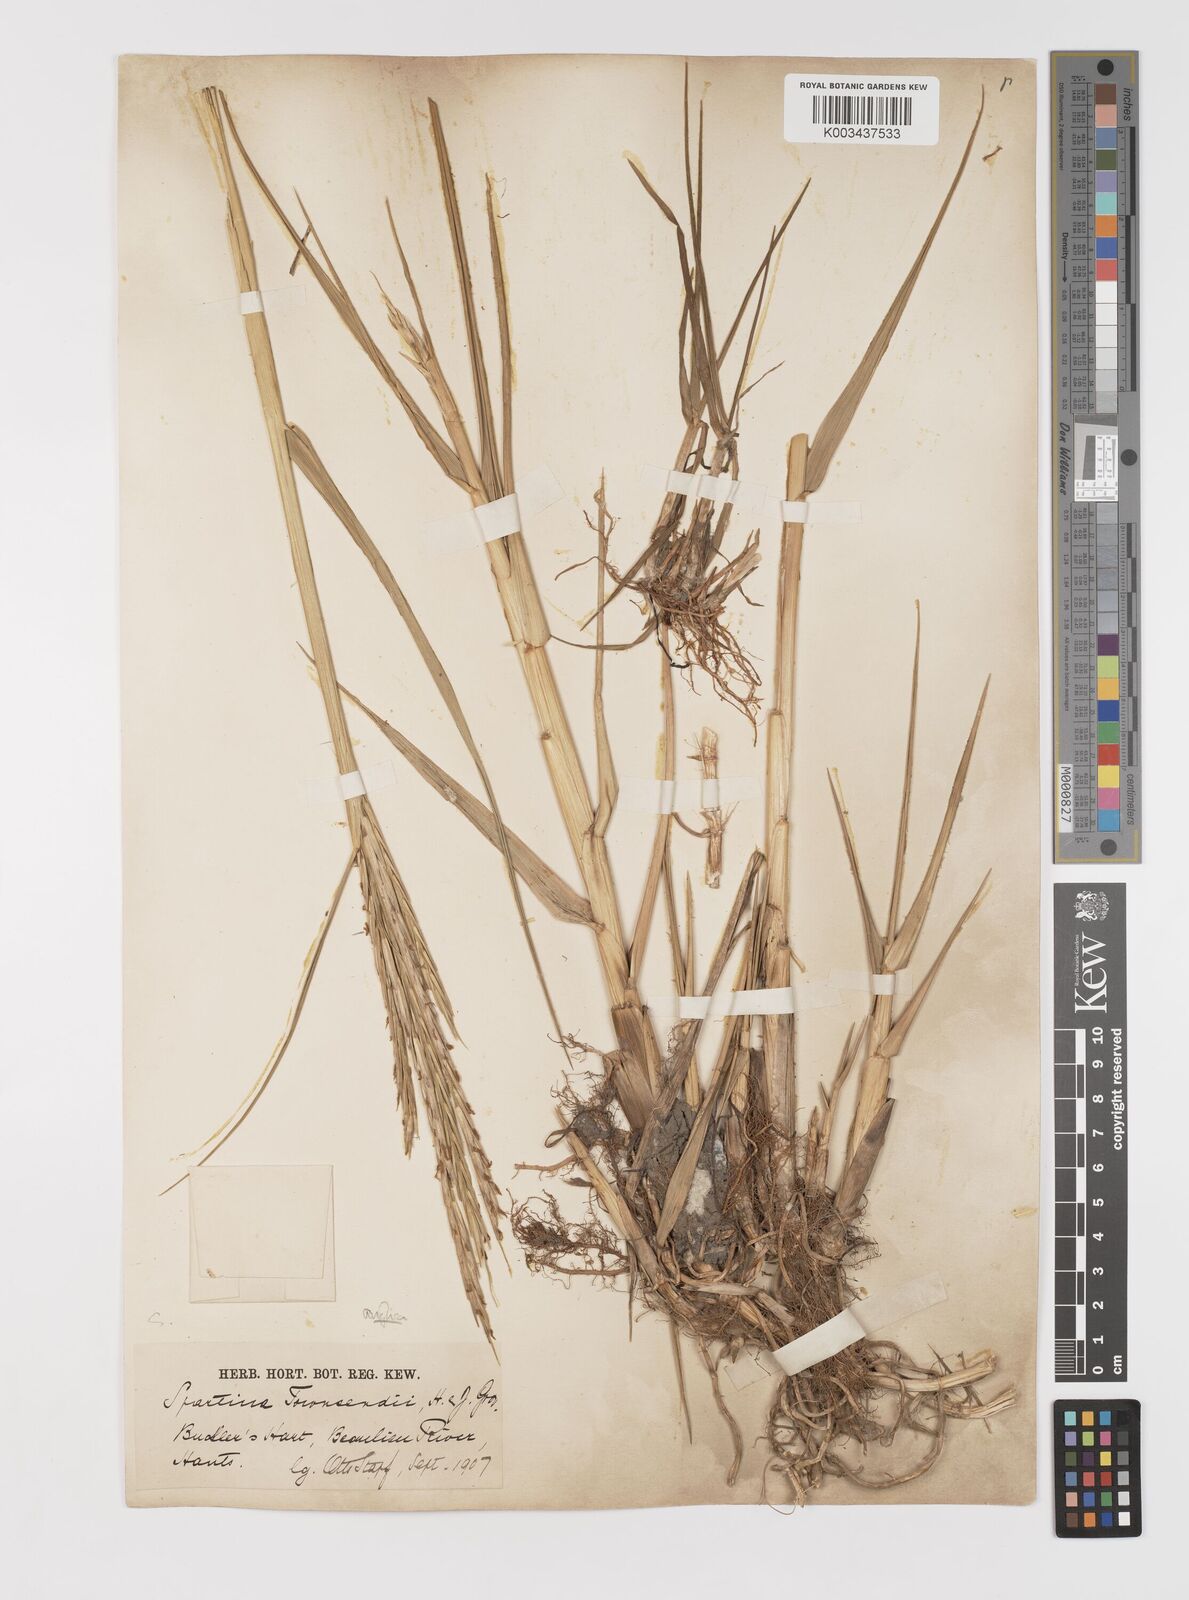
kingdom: Plantae
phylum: Tracheophyta
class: Liliopsida
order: Poales
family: Poaceae
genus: Sporobolus
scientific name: Sporobolus anglicus
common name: English cordgrass
